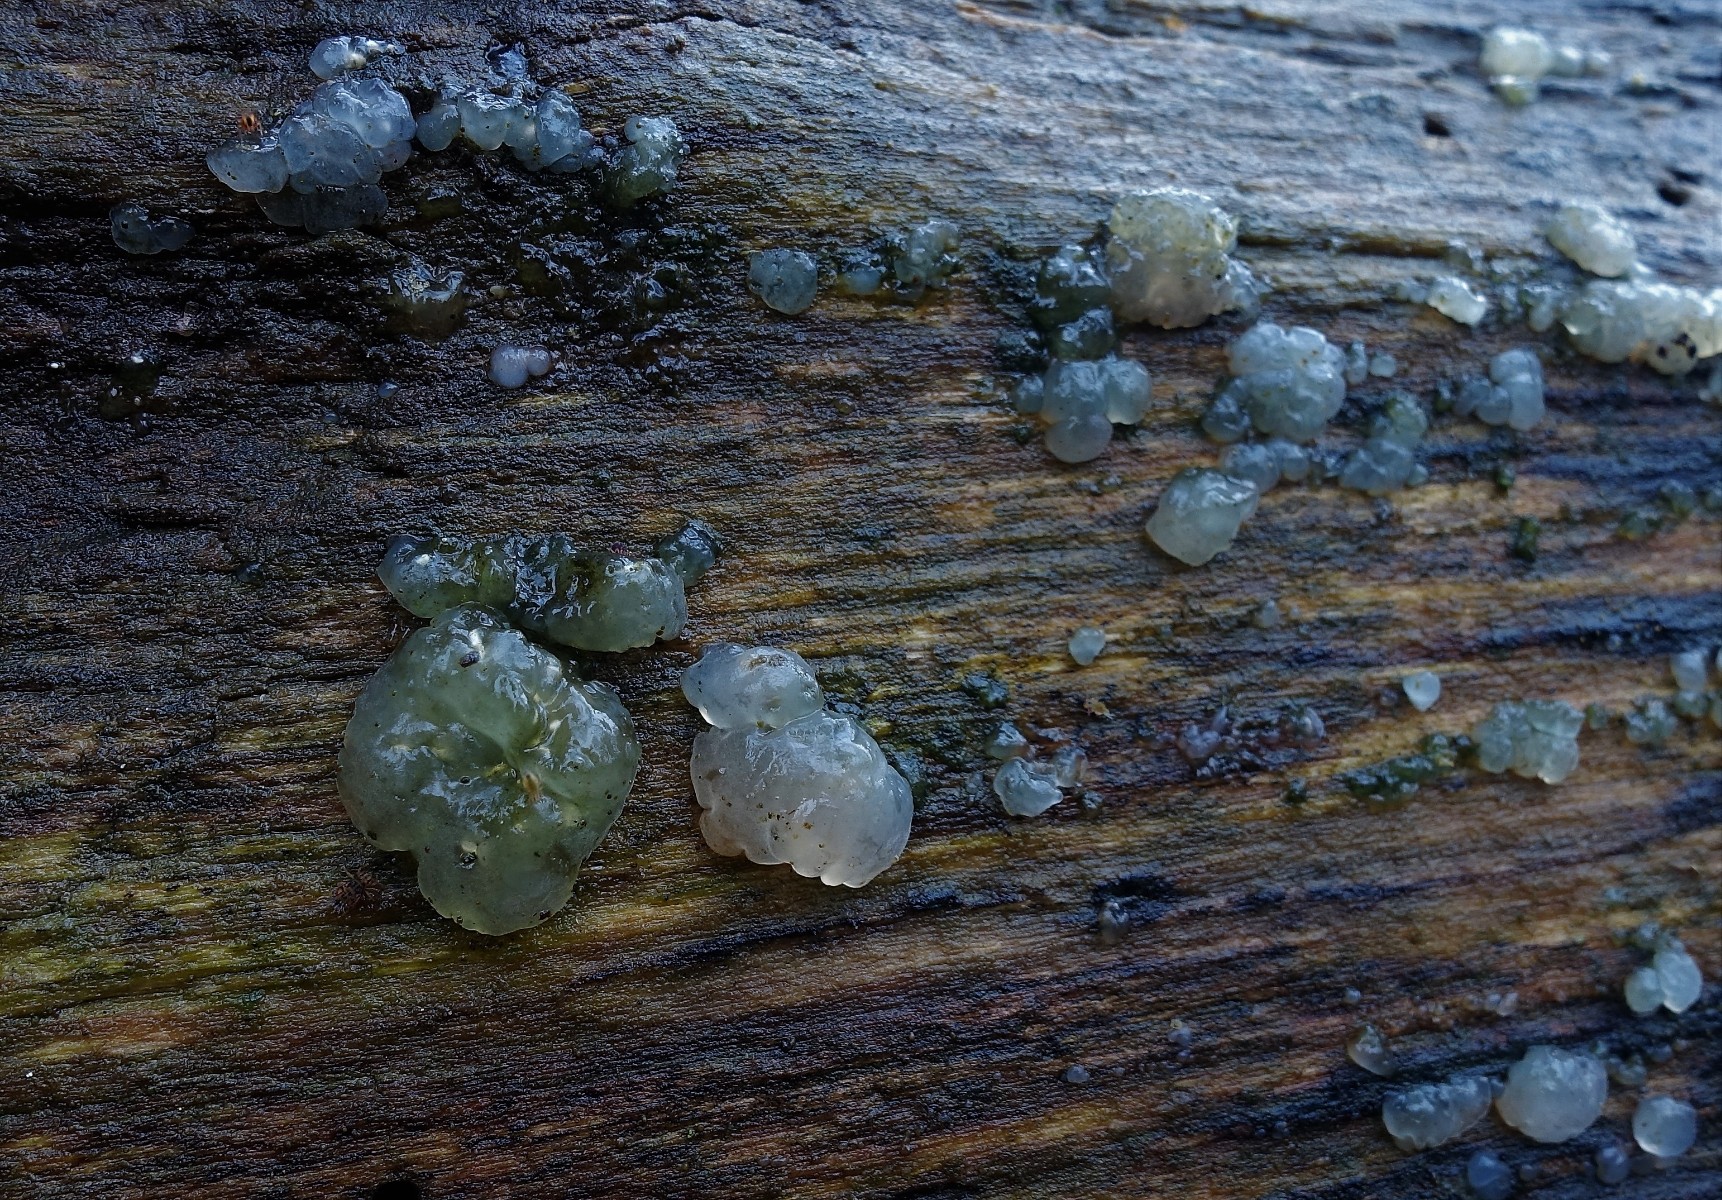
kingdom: Fungi
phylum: Basidiomycota
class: Agaricomycetes
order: Auriculariales
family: Hyaloriaceae
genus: Myxarium
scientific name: Myxarium nucleatum
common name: klar bævretop
